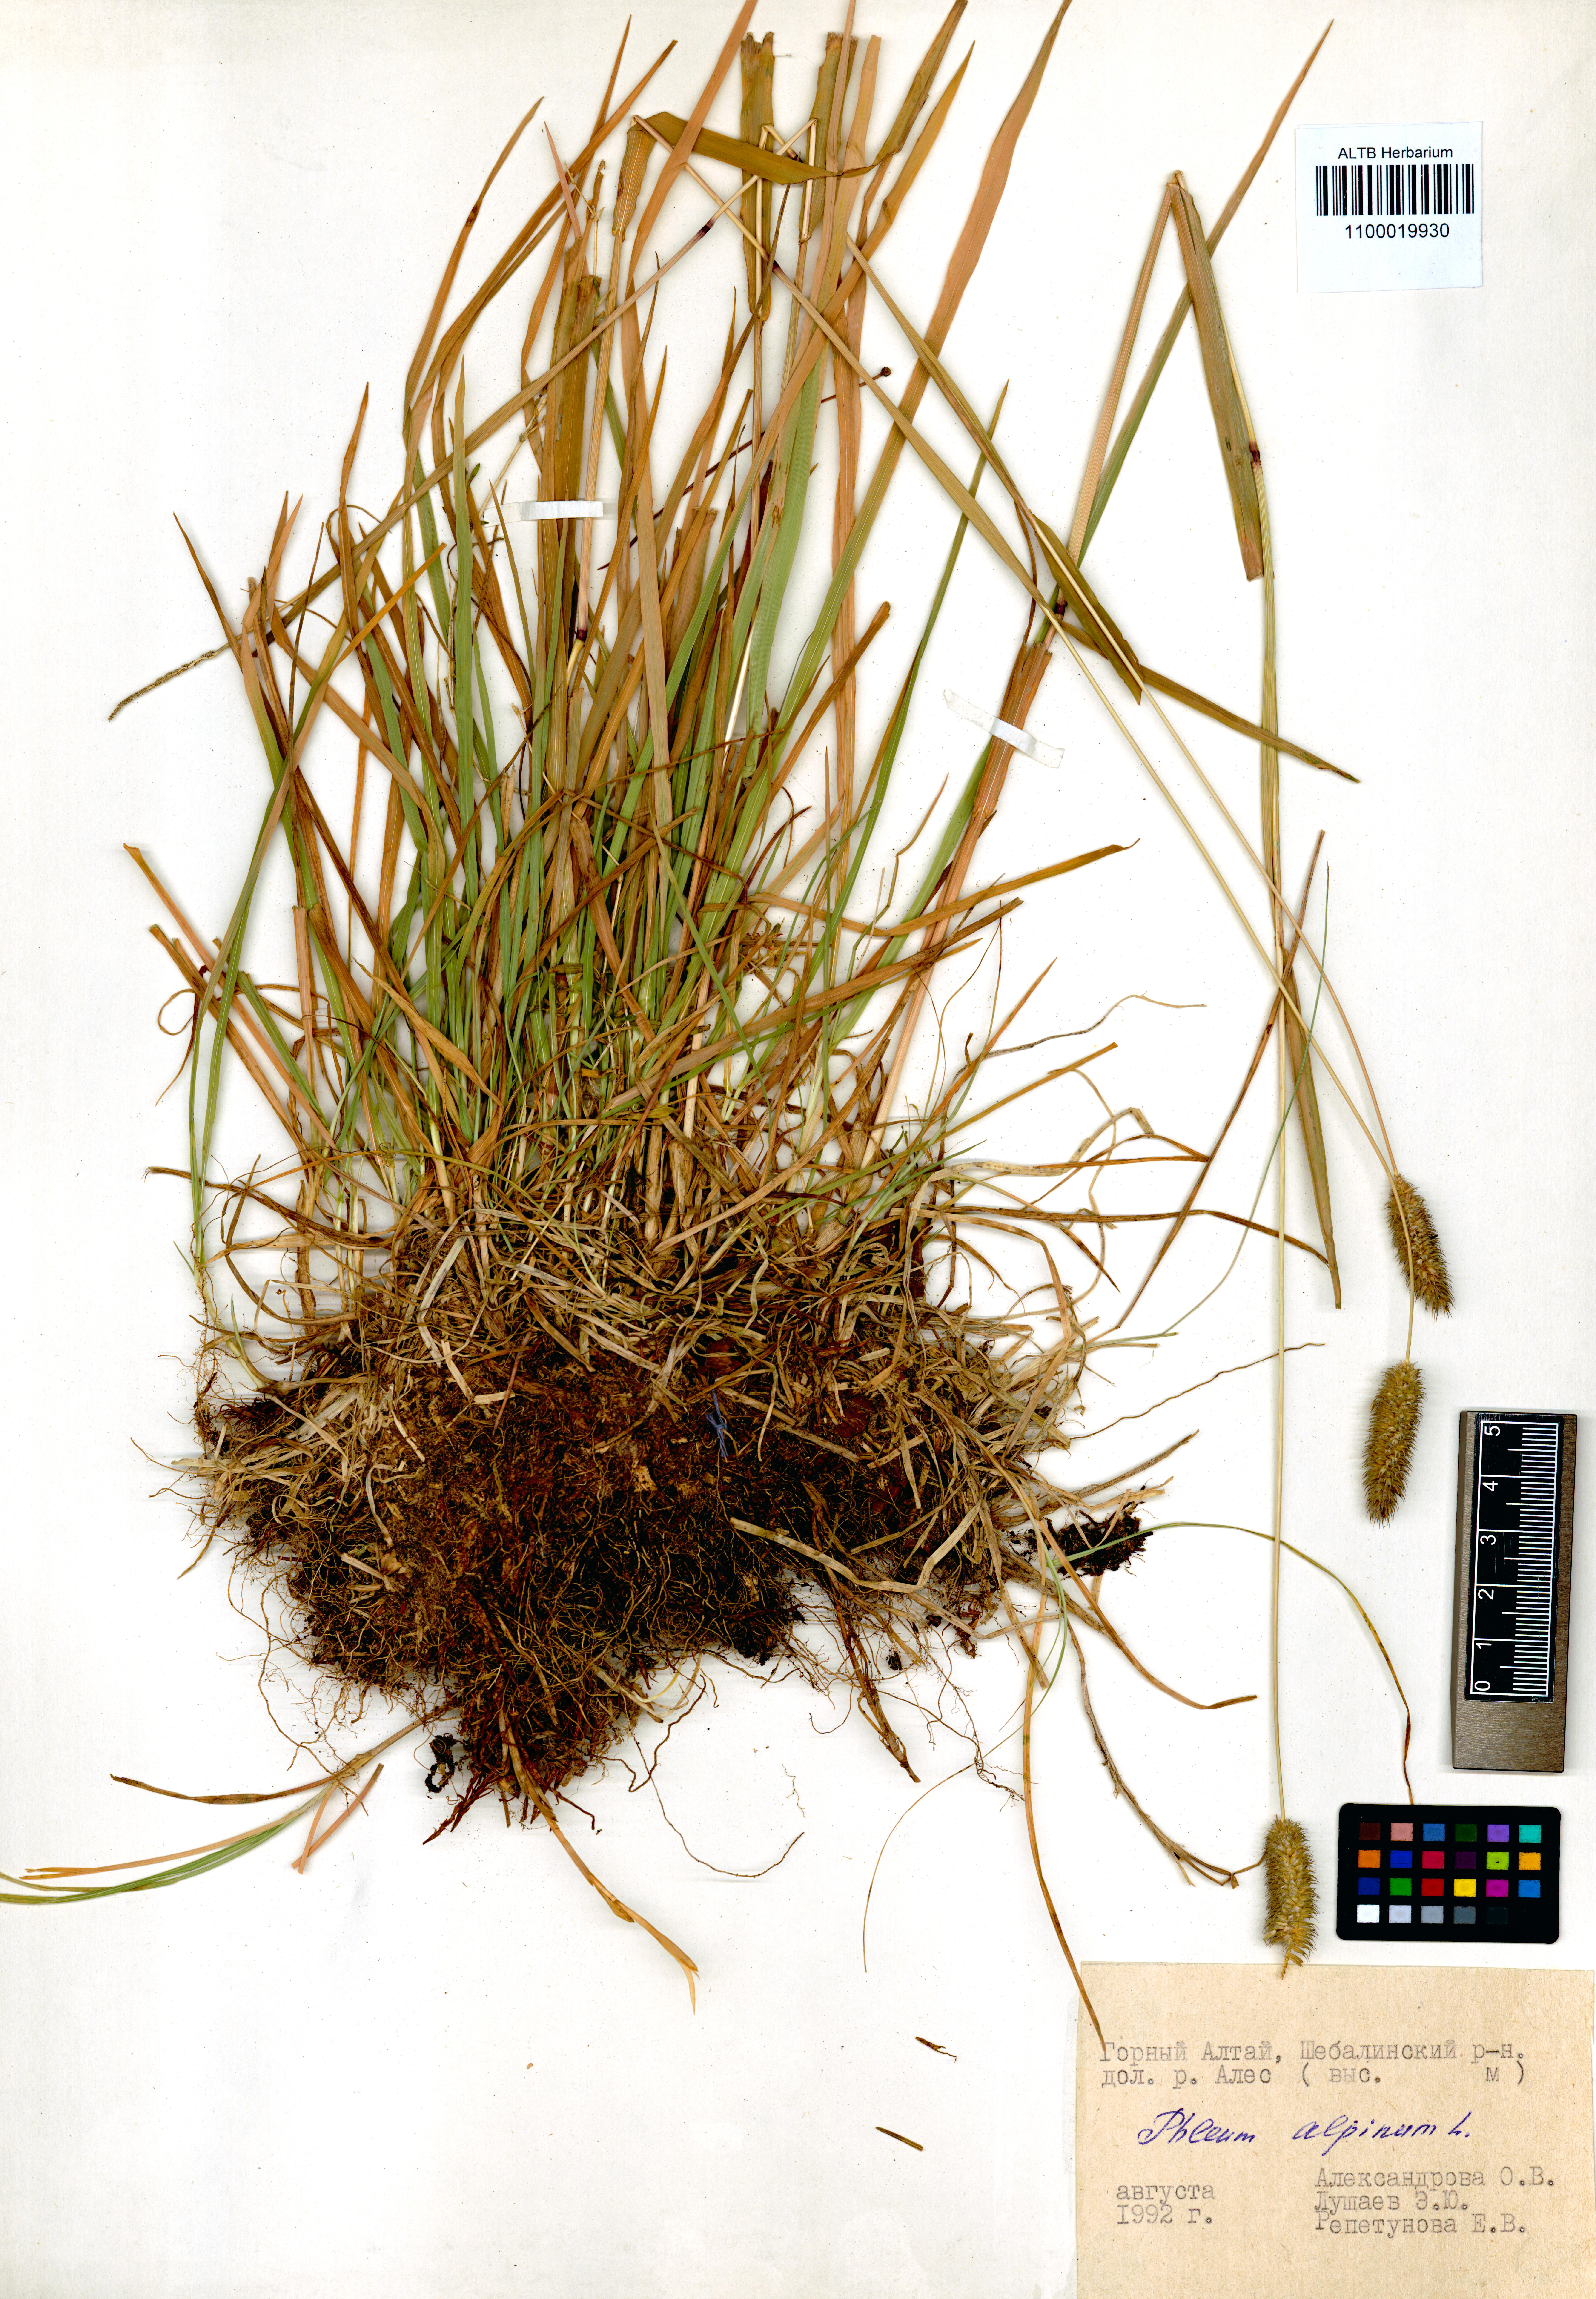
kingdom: Plantae
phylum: Tracheophyta
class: Liliopsida
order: Poales
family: Poaceae
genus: Phleum
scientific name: Phleum alpinum
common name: Alpine cat's-tail
